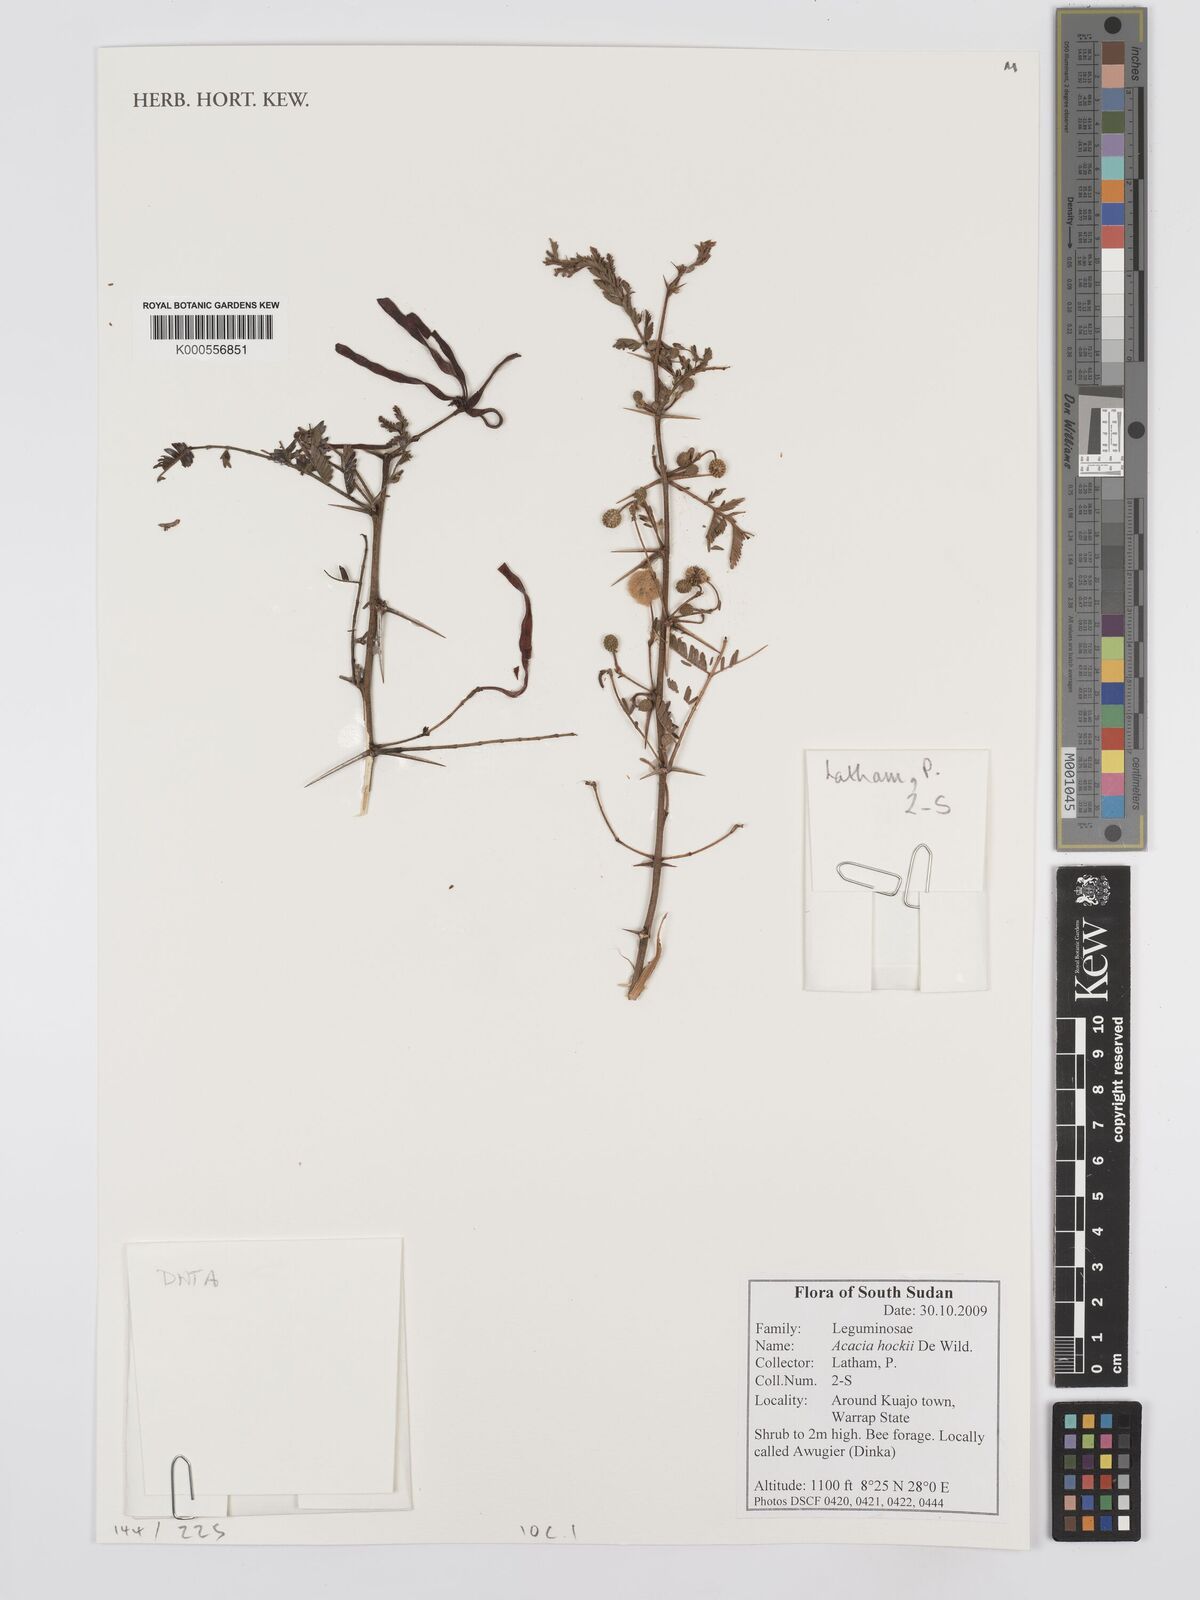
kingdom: Plantae
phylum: Tracheophyta
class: Magnoliopsida
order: Fabales
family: Fabaceae
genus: Vachellia
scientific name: Vachellia hockii
